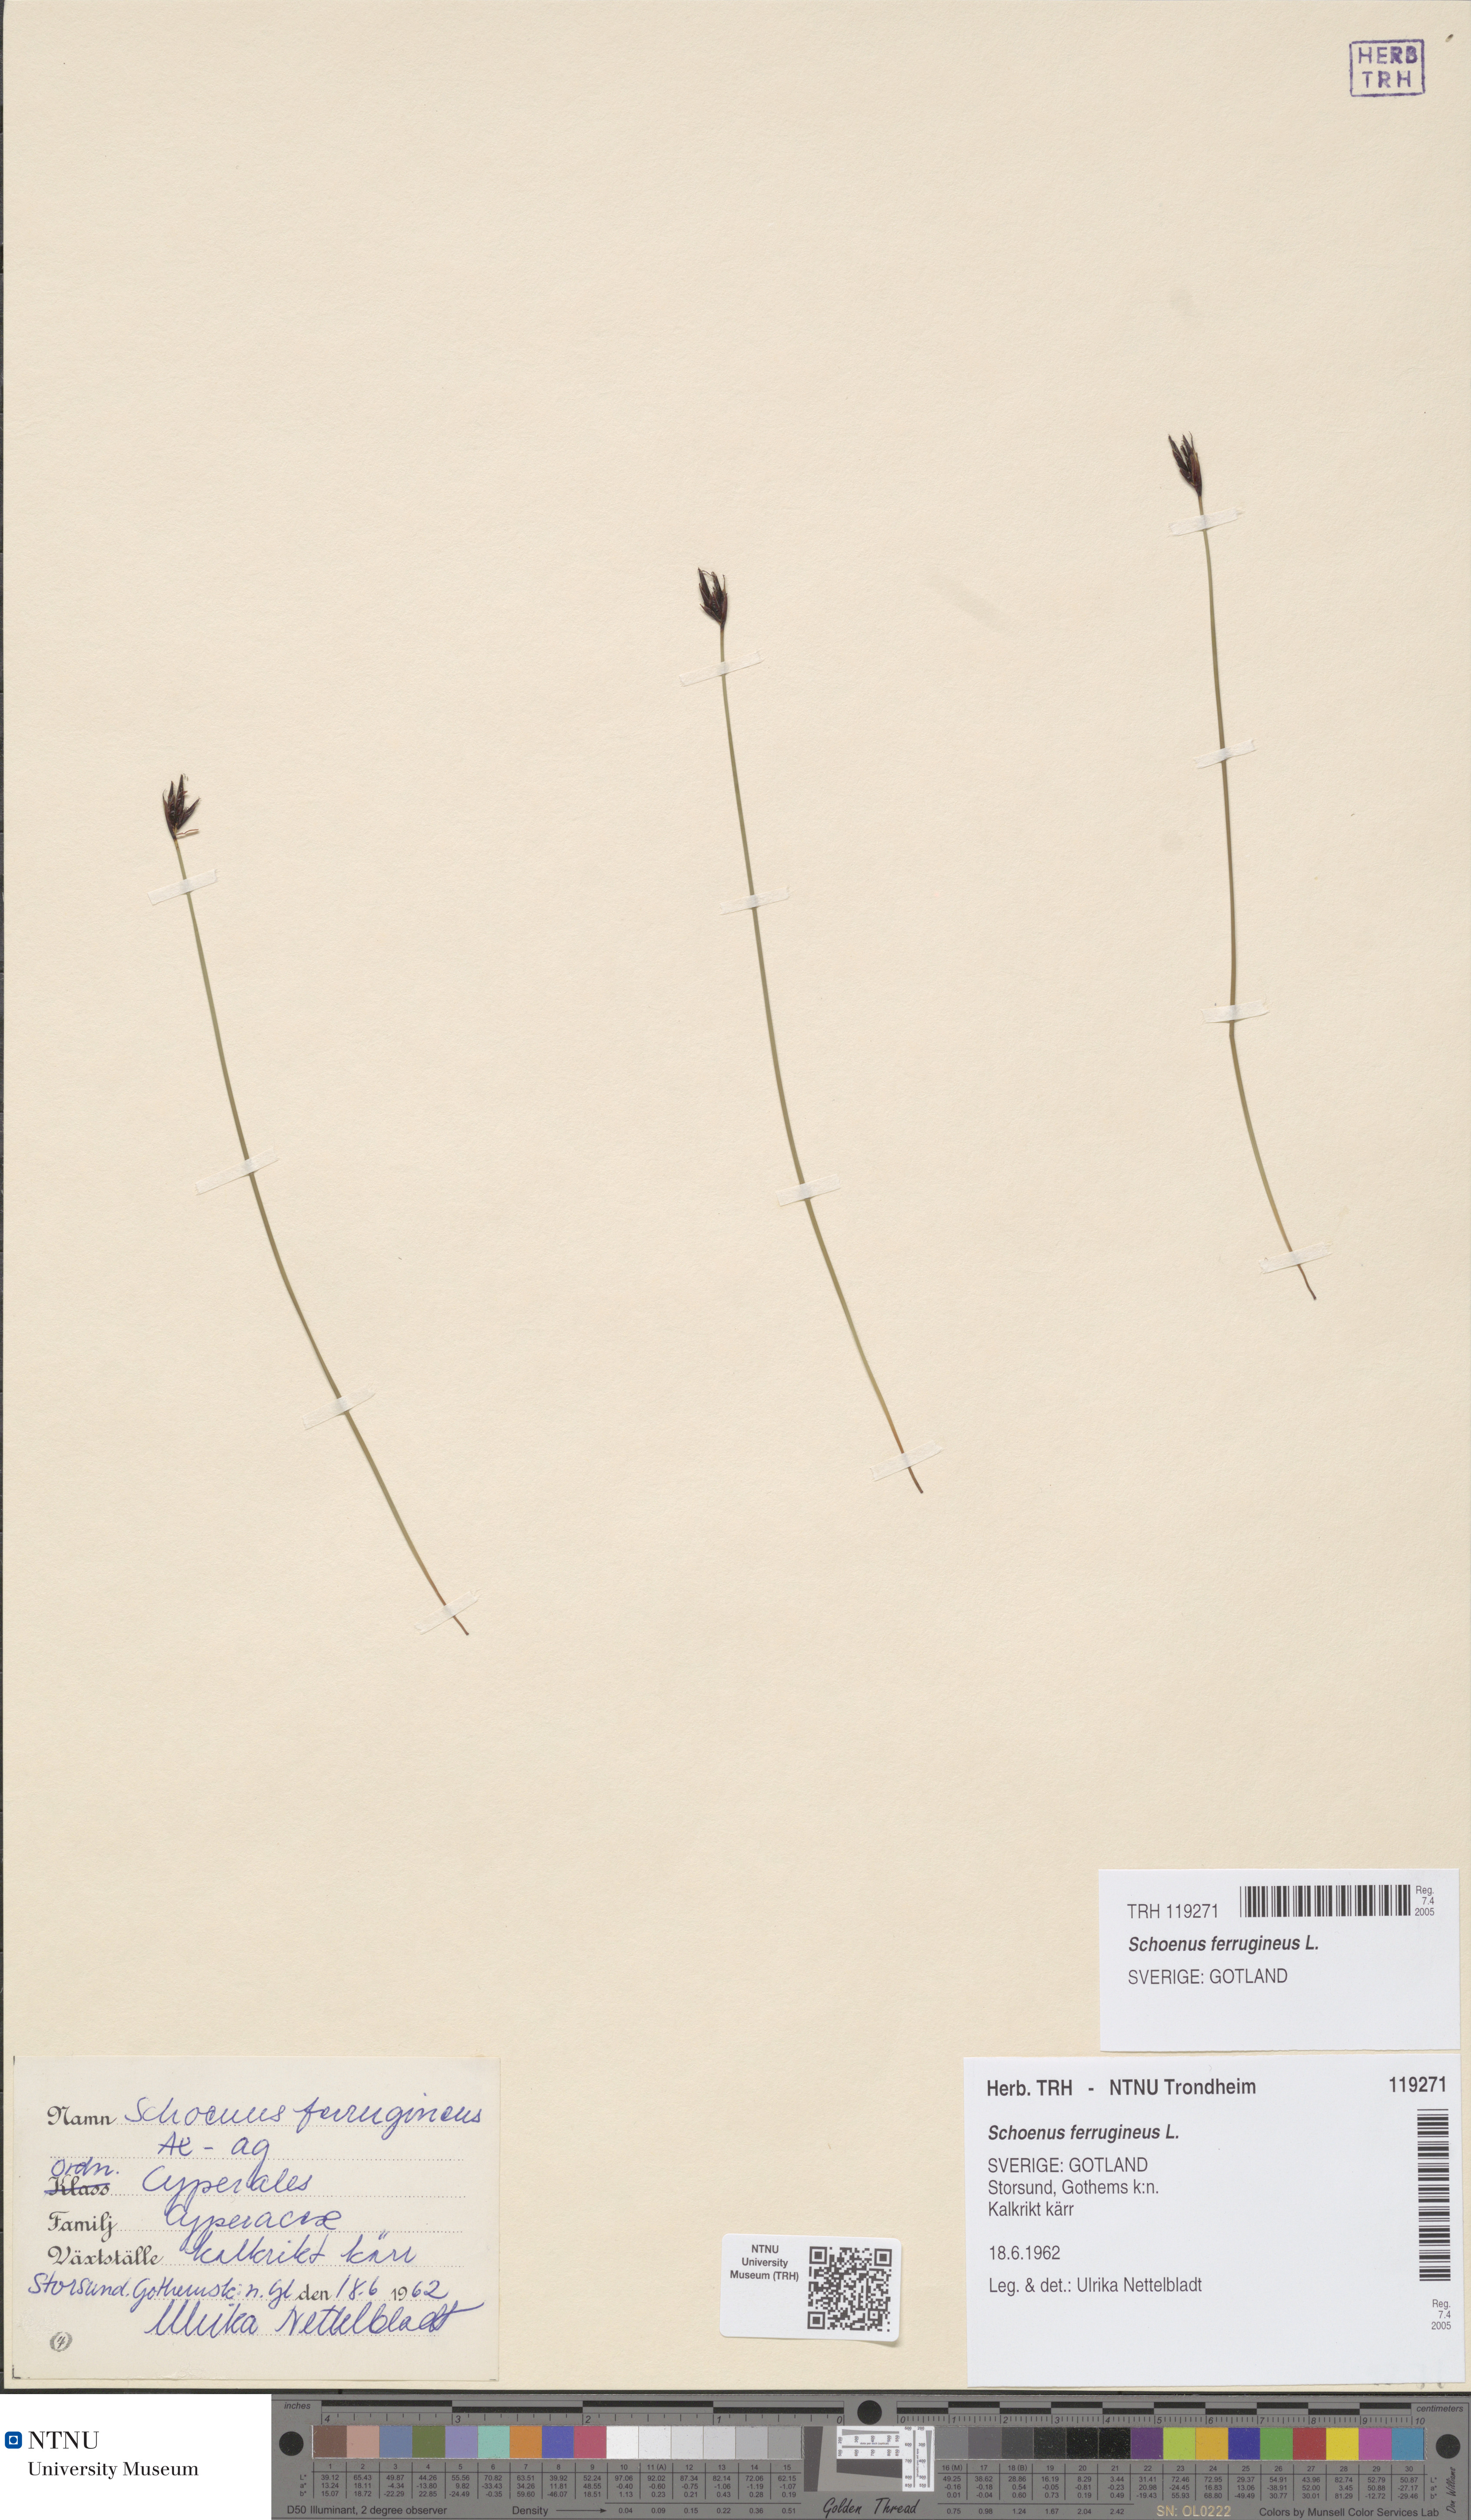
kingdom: Plantae
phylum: Tracheophyta
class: Liliopsida
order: Poales
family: Cyperaceae
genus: Schoenus
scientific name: Schoenus ferrugineus
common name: Brown bog-rush
